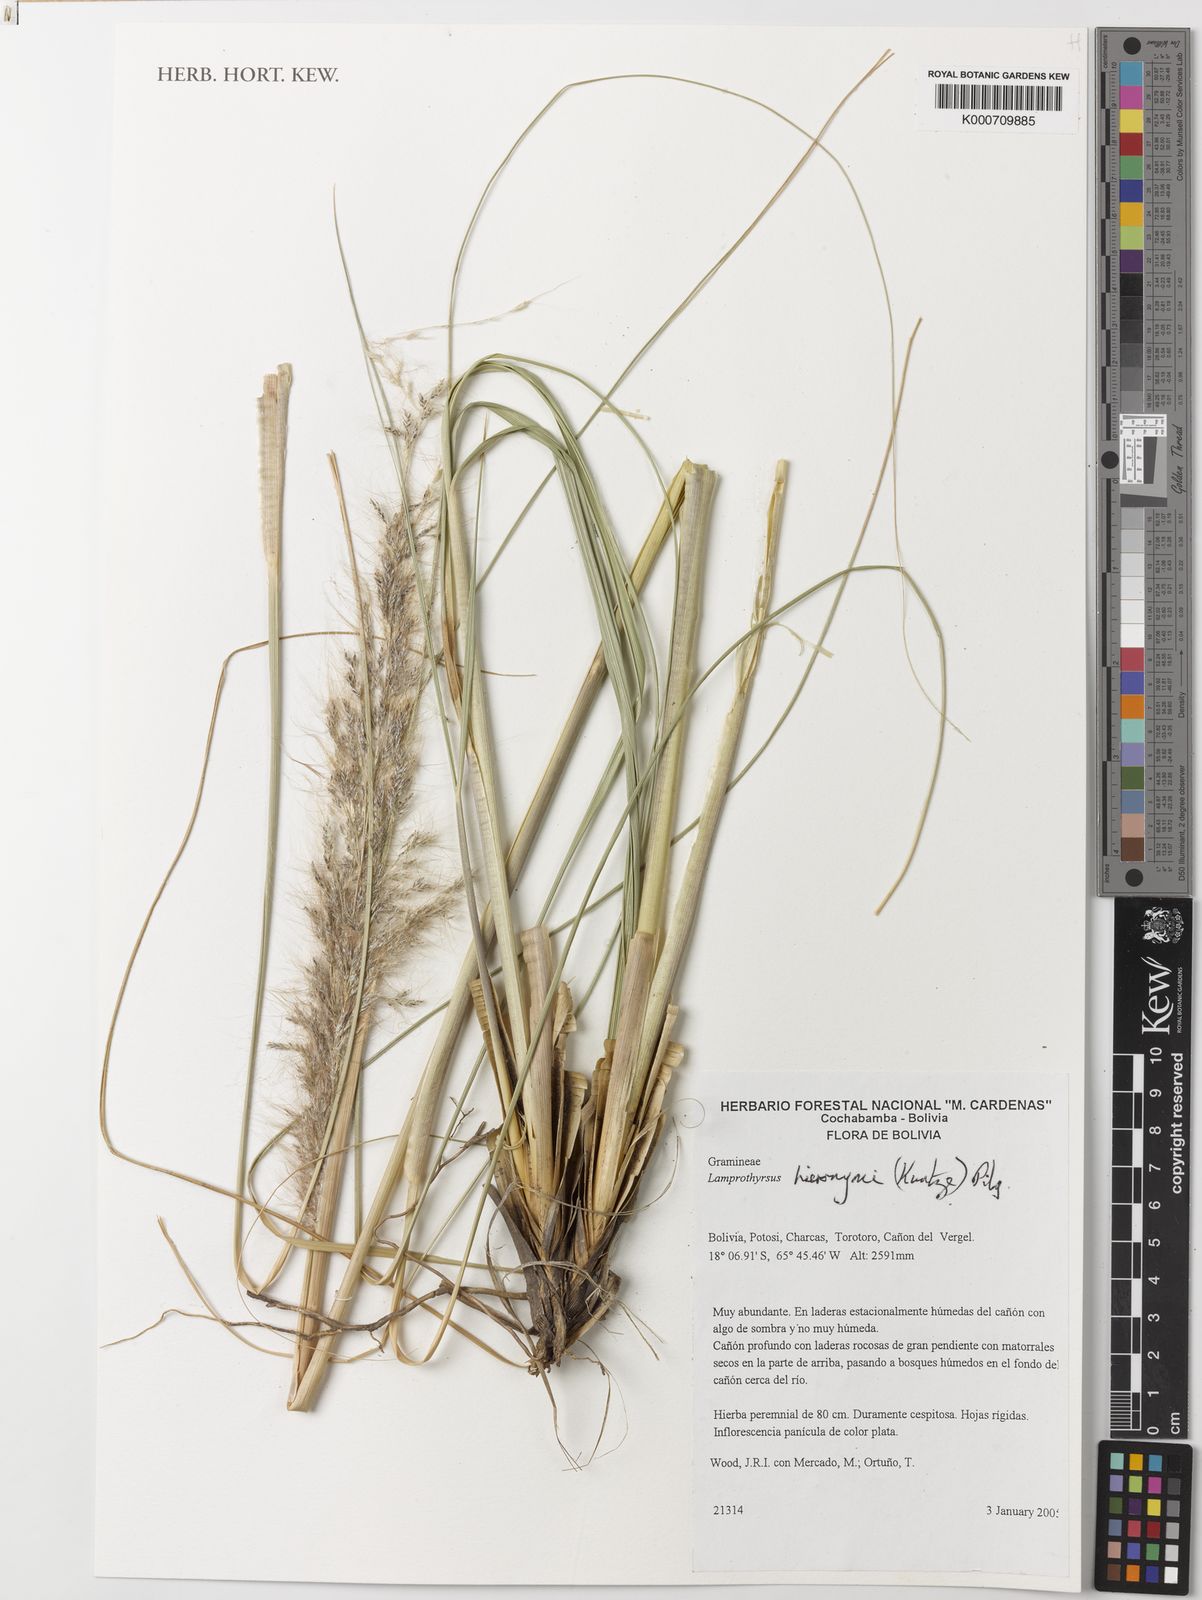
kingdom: Plantae
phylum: Tracheophyta
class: Liliopsida
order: Poales
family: Poaceae
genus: Cortaderia
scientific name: Cortaderia hieronymi
